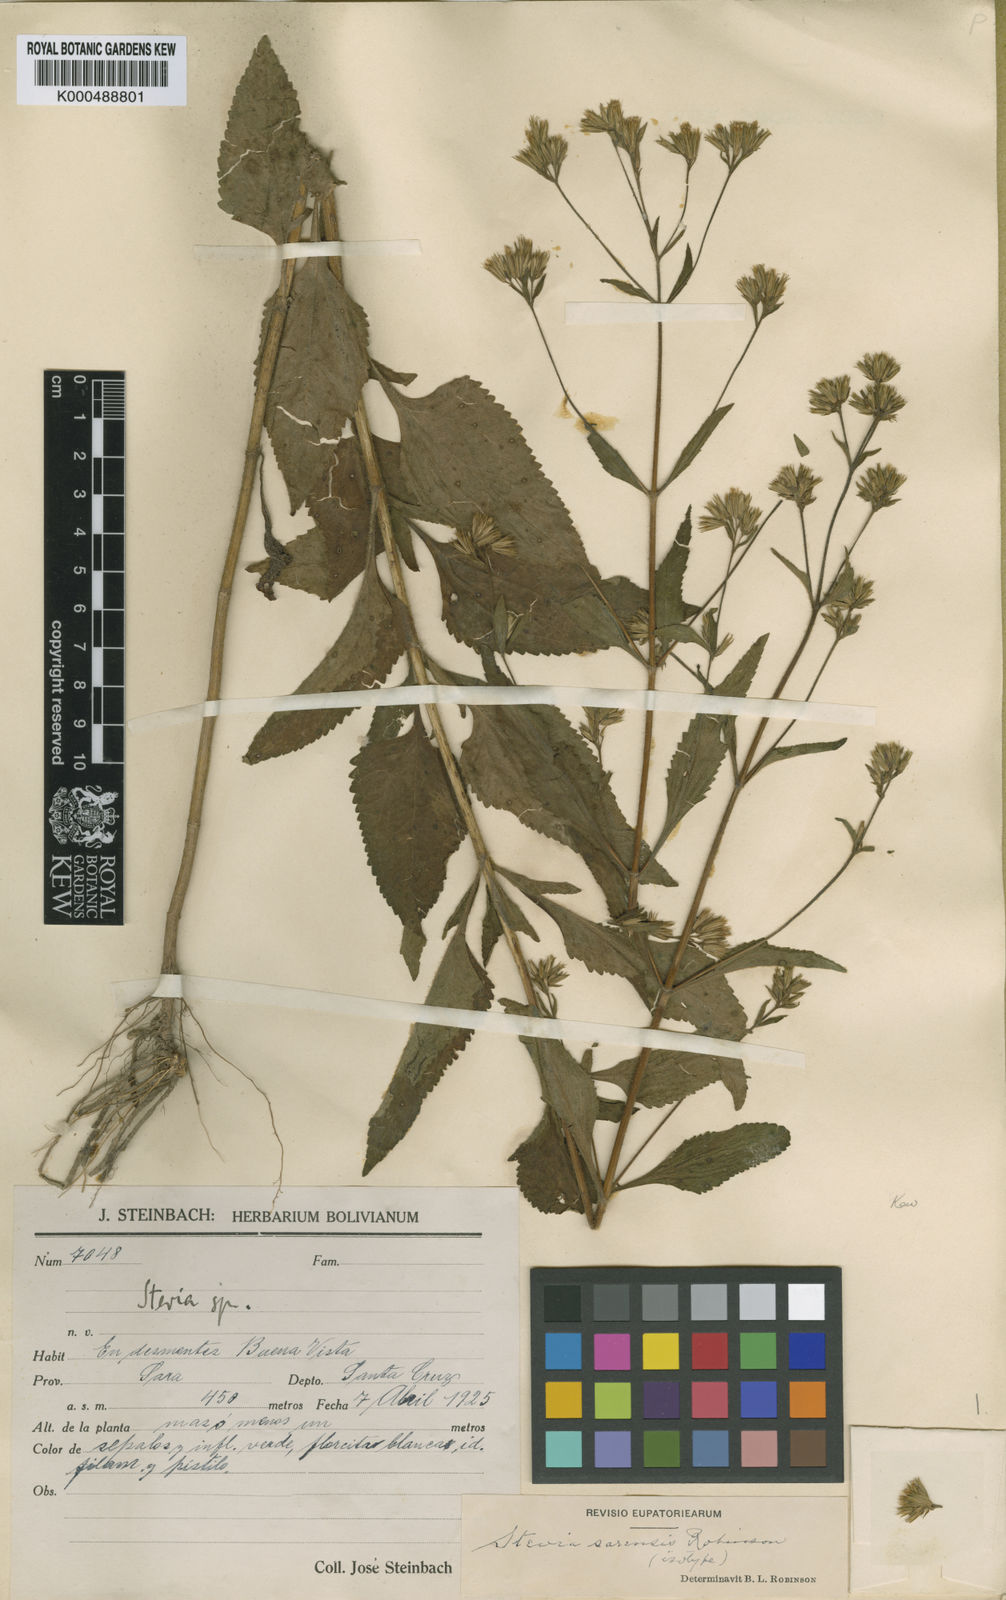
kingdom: Plantae
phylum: Tracheophyta
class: Magnoliopsida
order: Asterales
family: Asteraceae
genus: Stevia
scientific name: Stevia sarensis
